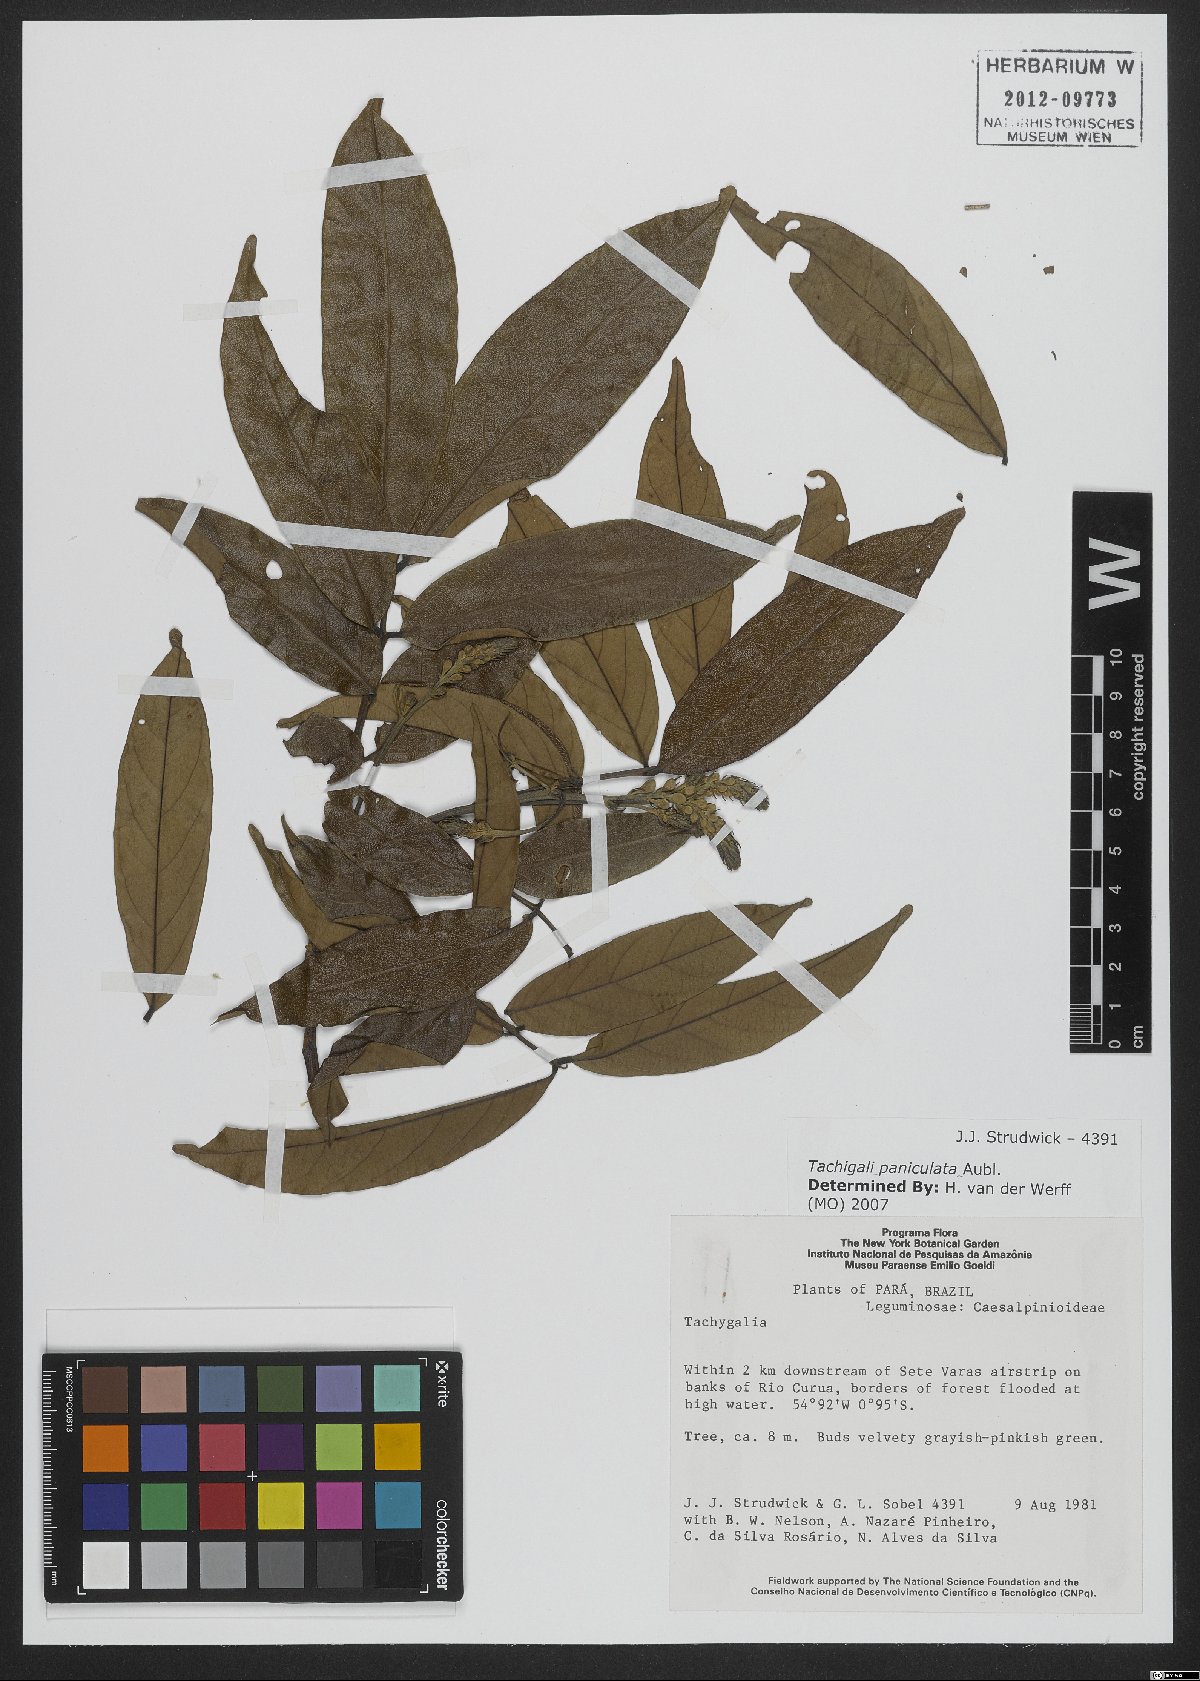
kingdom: Plantae
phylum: Tracheophyta
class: Magnoliopsida
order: Fabales
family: Fabaceae
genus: Tachigali
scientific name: Tachigali paniculata
